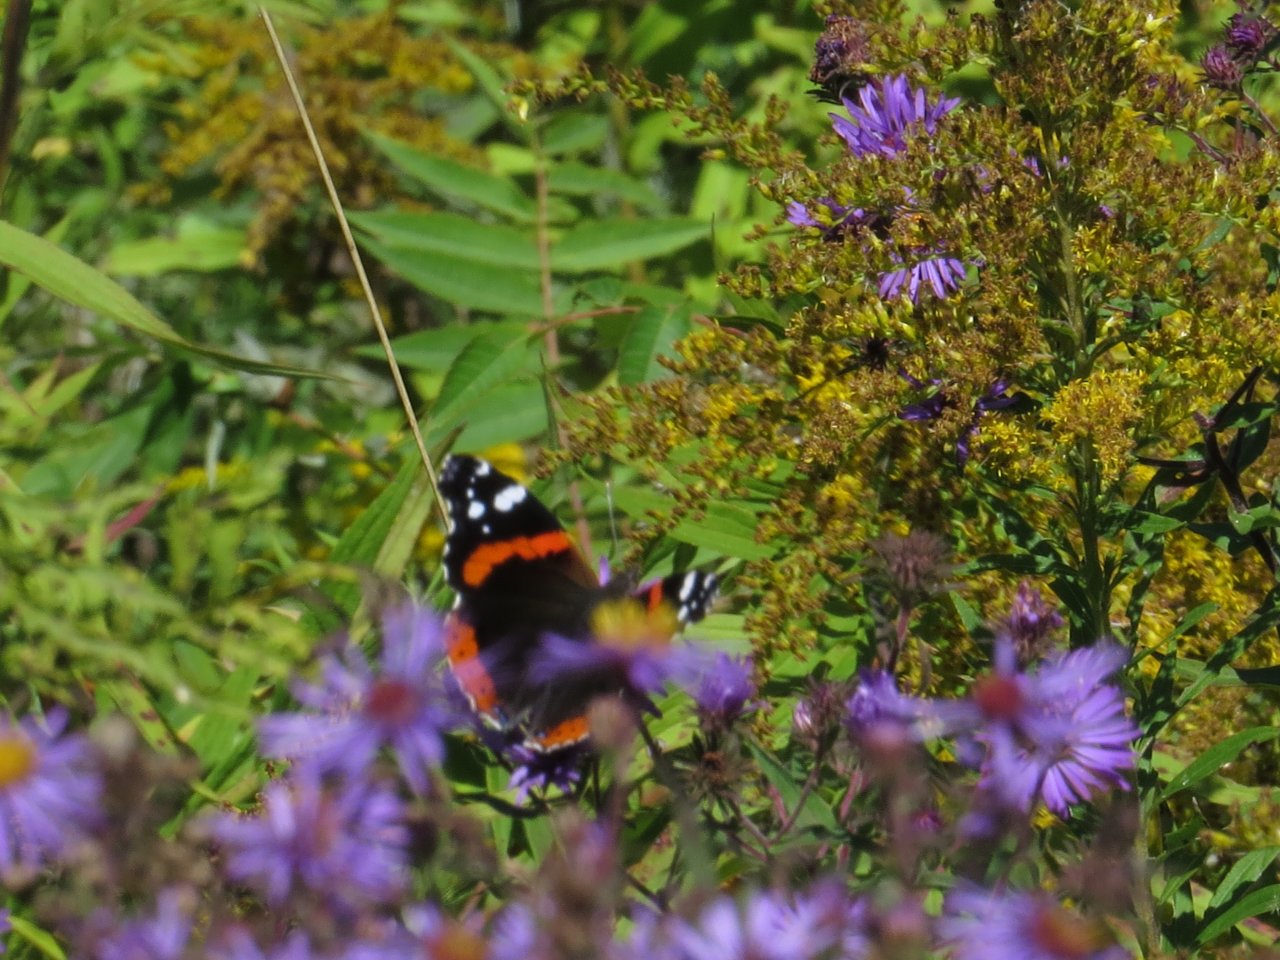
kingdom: Animalia
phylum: Arthropoda
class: Insecta
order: Lepidoptera
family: Nymphalidae
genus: Vanessa
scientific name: Vanessa atalanta
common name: Red Admiral
